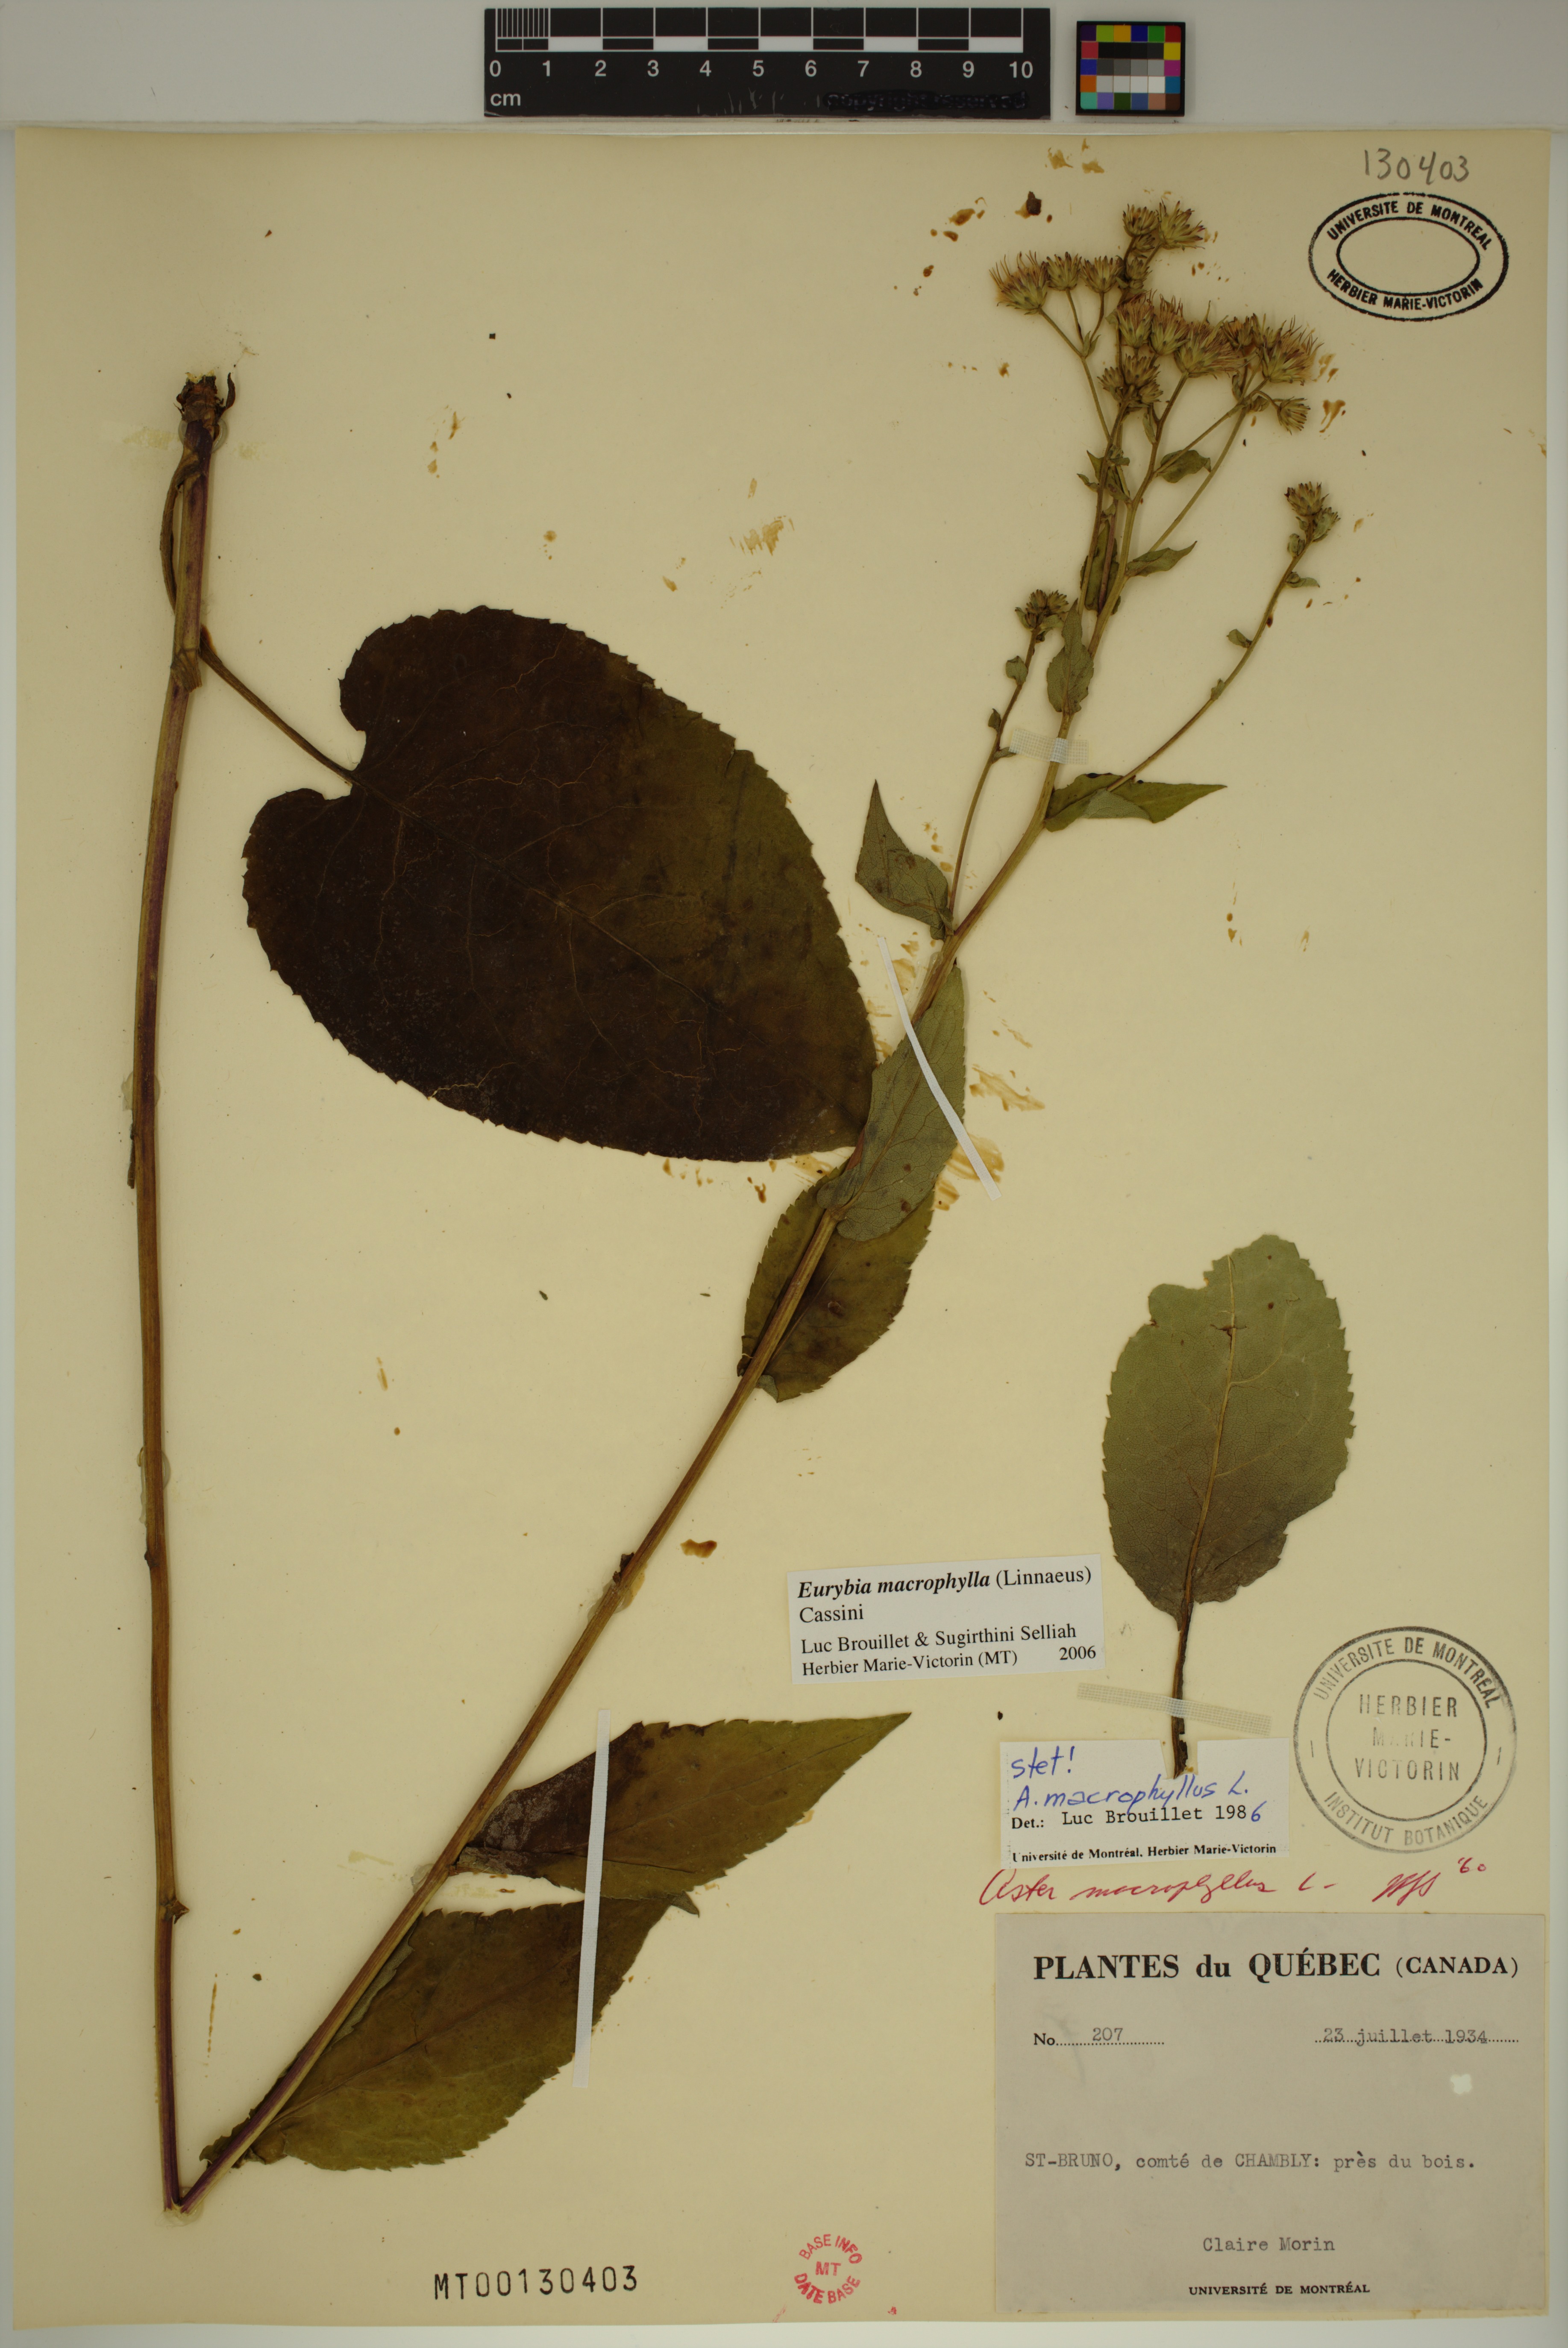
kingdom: Plantae
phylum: Tracheophyta
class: Magnoliopsida
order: Asterales
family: Asteraceae
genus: Eurybia
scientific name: Eurybia macrophylla
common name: Big-leaved aster
